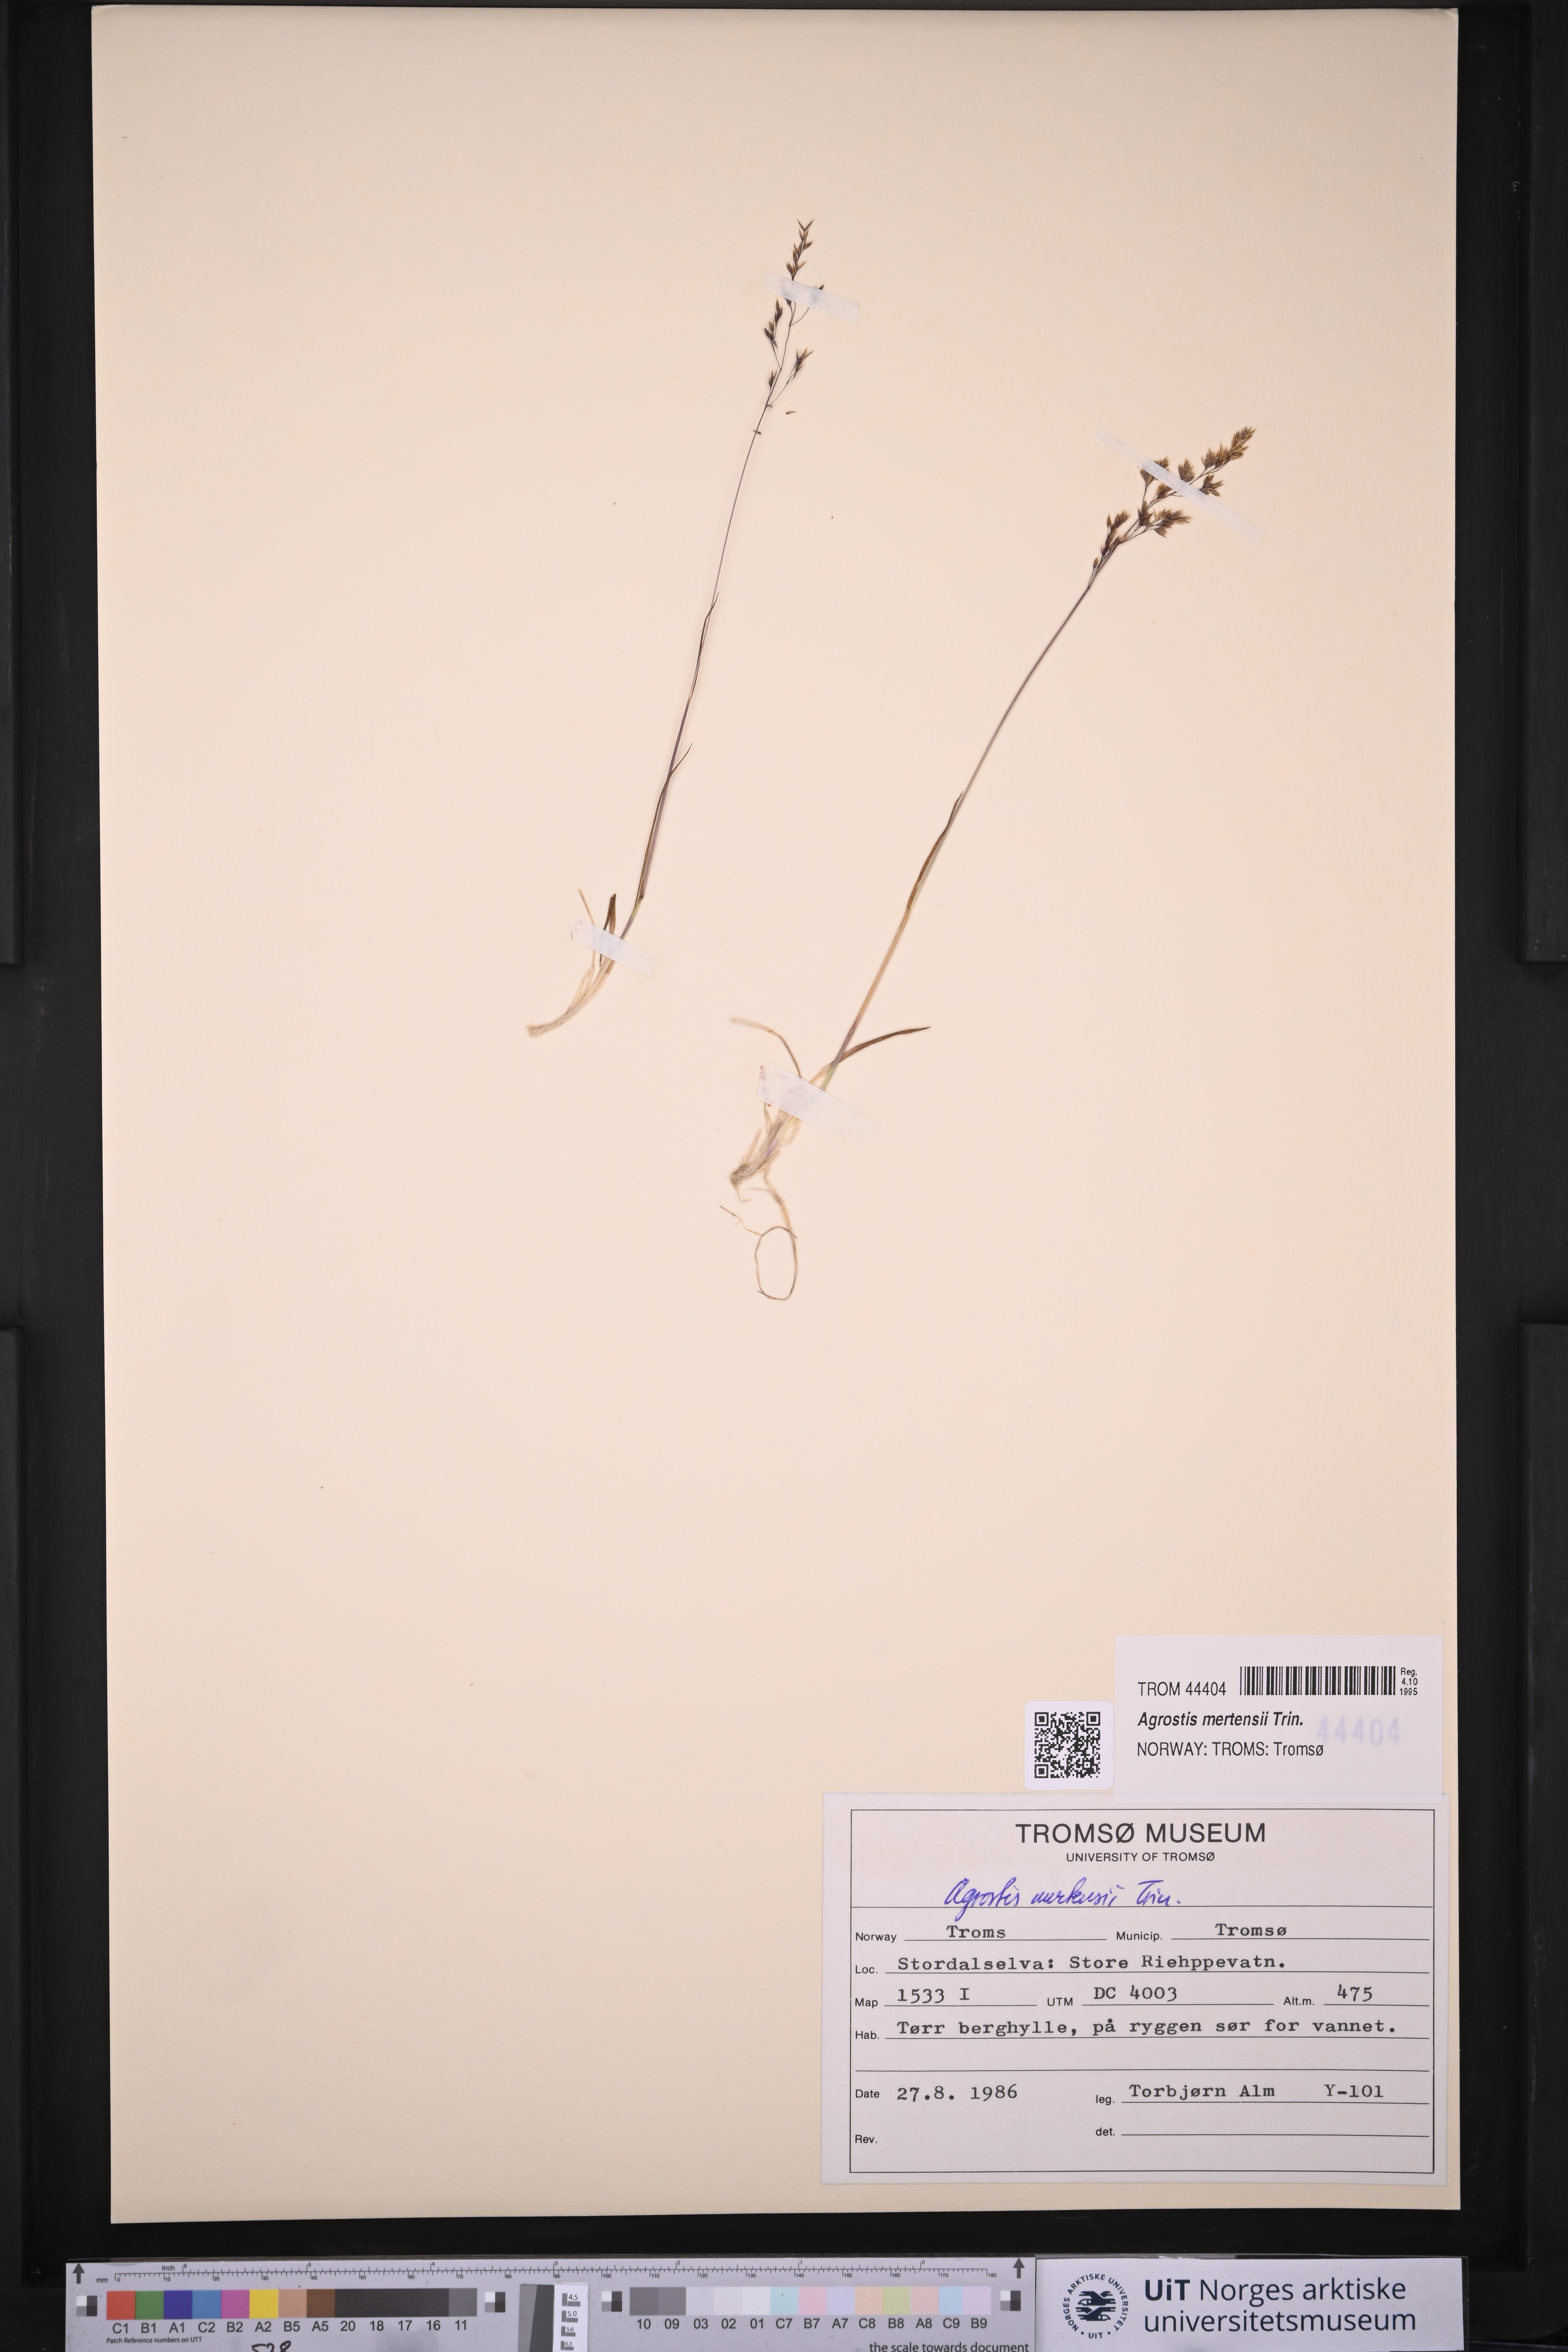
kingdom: Plantae
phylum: Tracheophyta
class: Liliopsida
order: Poales
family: Poaceae
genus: Agrostis
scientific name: Agrostis mertensii
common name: Northern bent
